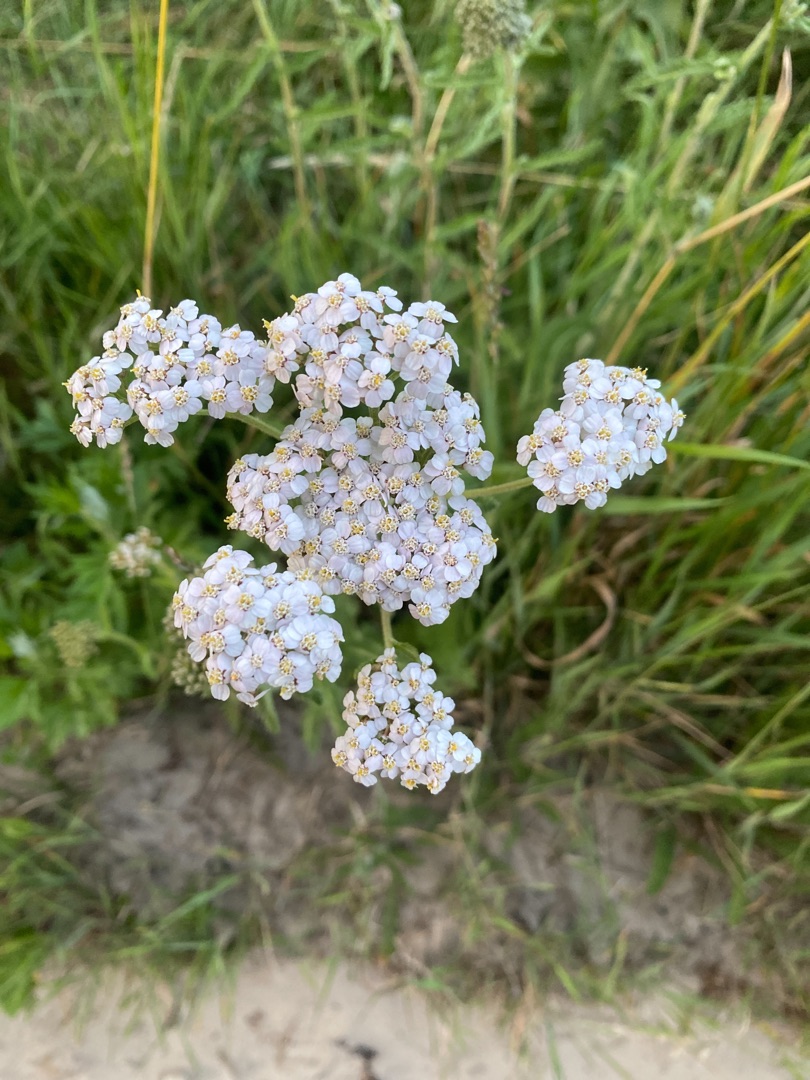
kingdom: Plantae
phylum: Tracheophyta
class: Magnoliopsida
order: Asterales
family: Asteraceae
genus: Achillea
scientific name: Achillea millefolium
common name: Almindelig røllike
